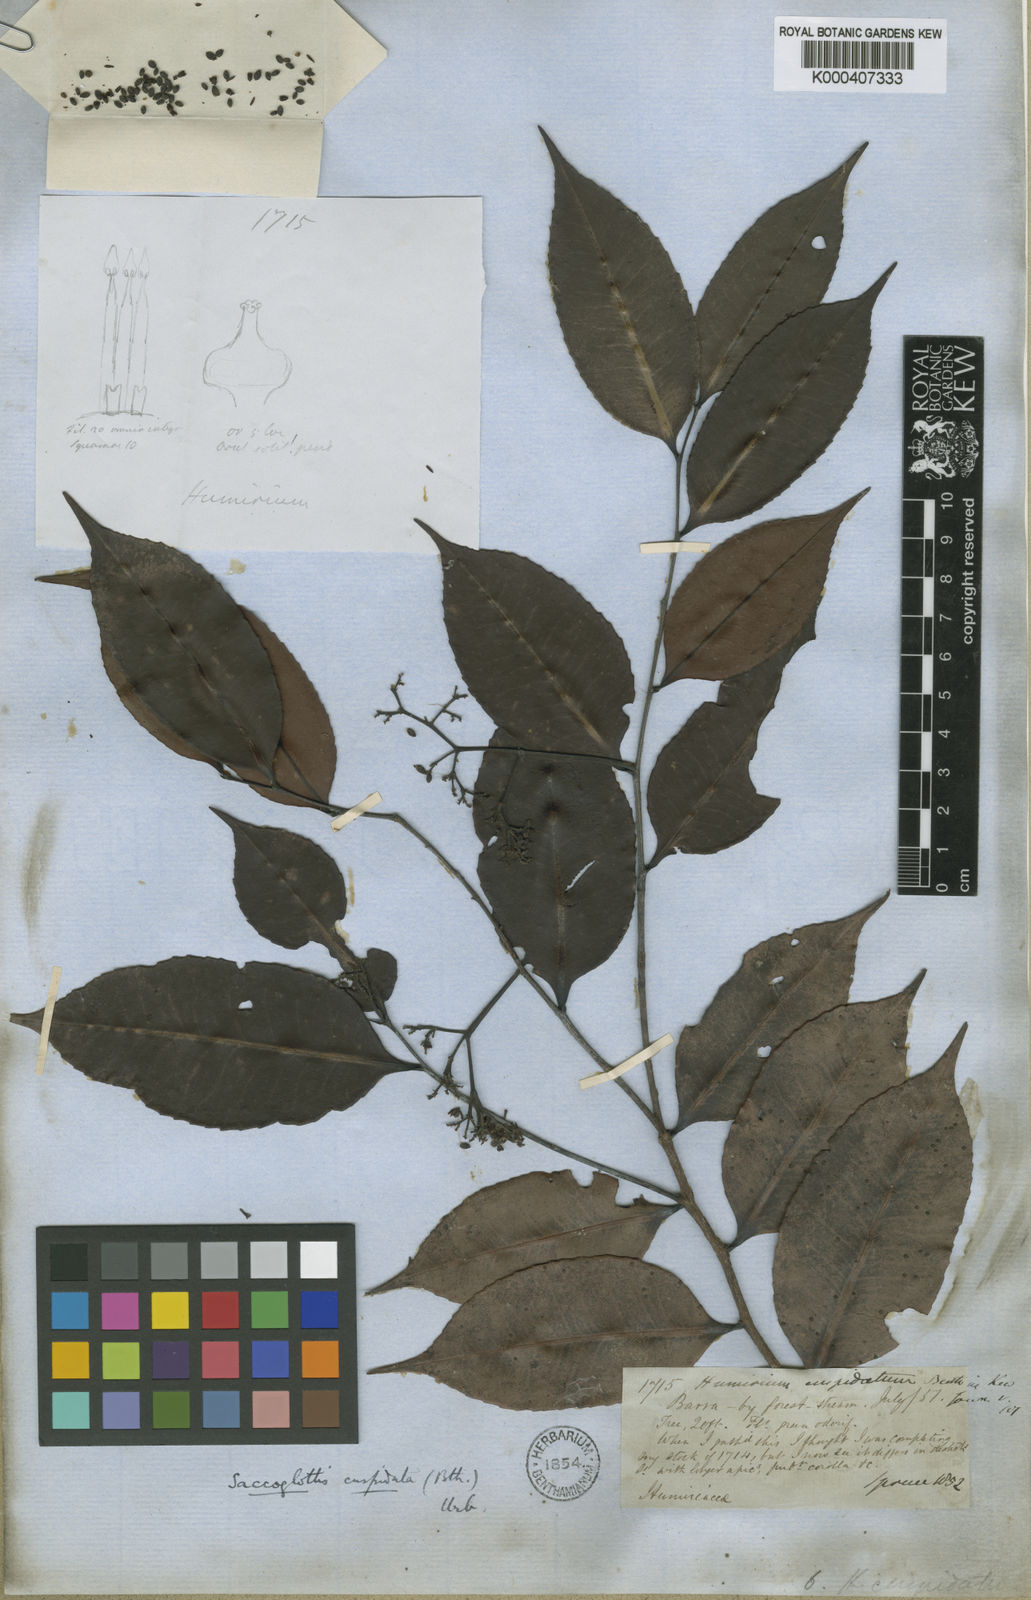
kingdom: Plantae
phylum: Tracheophyta
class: Magnoliopsida
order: Malpighiales
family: Humiriaceae
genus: Humiriastrum
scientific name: Humiriastrum cuspidatum
